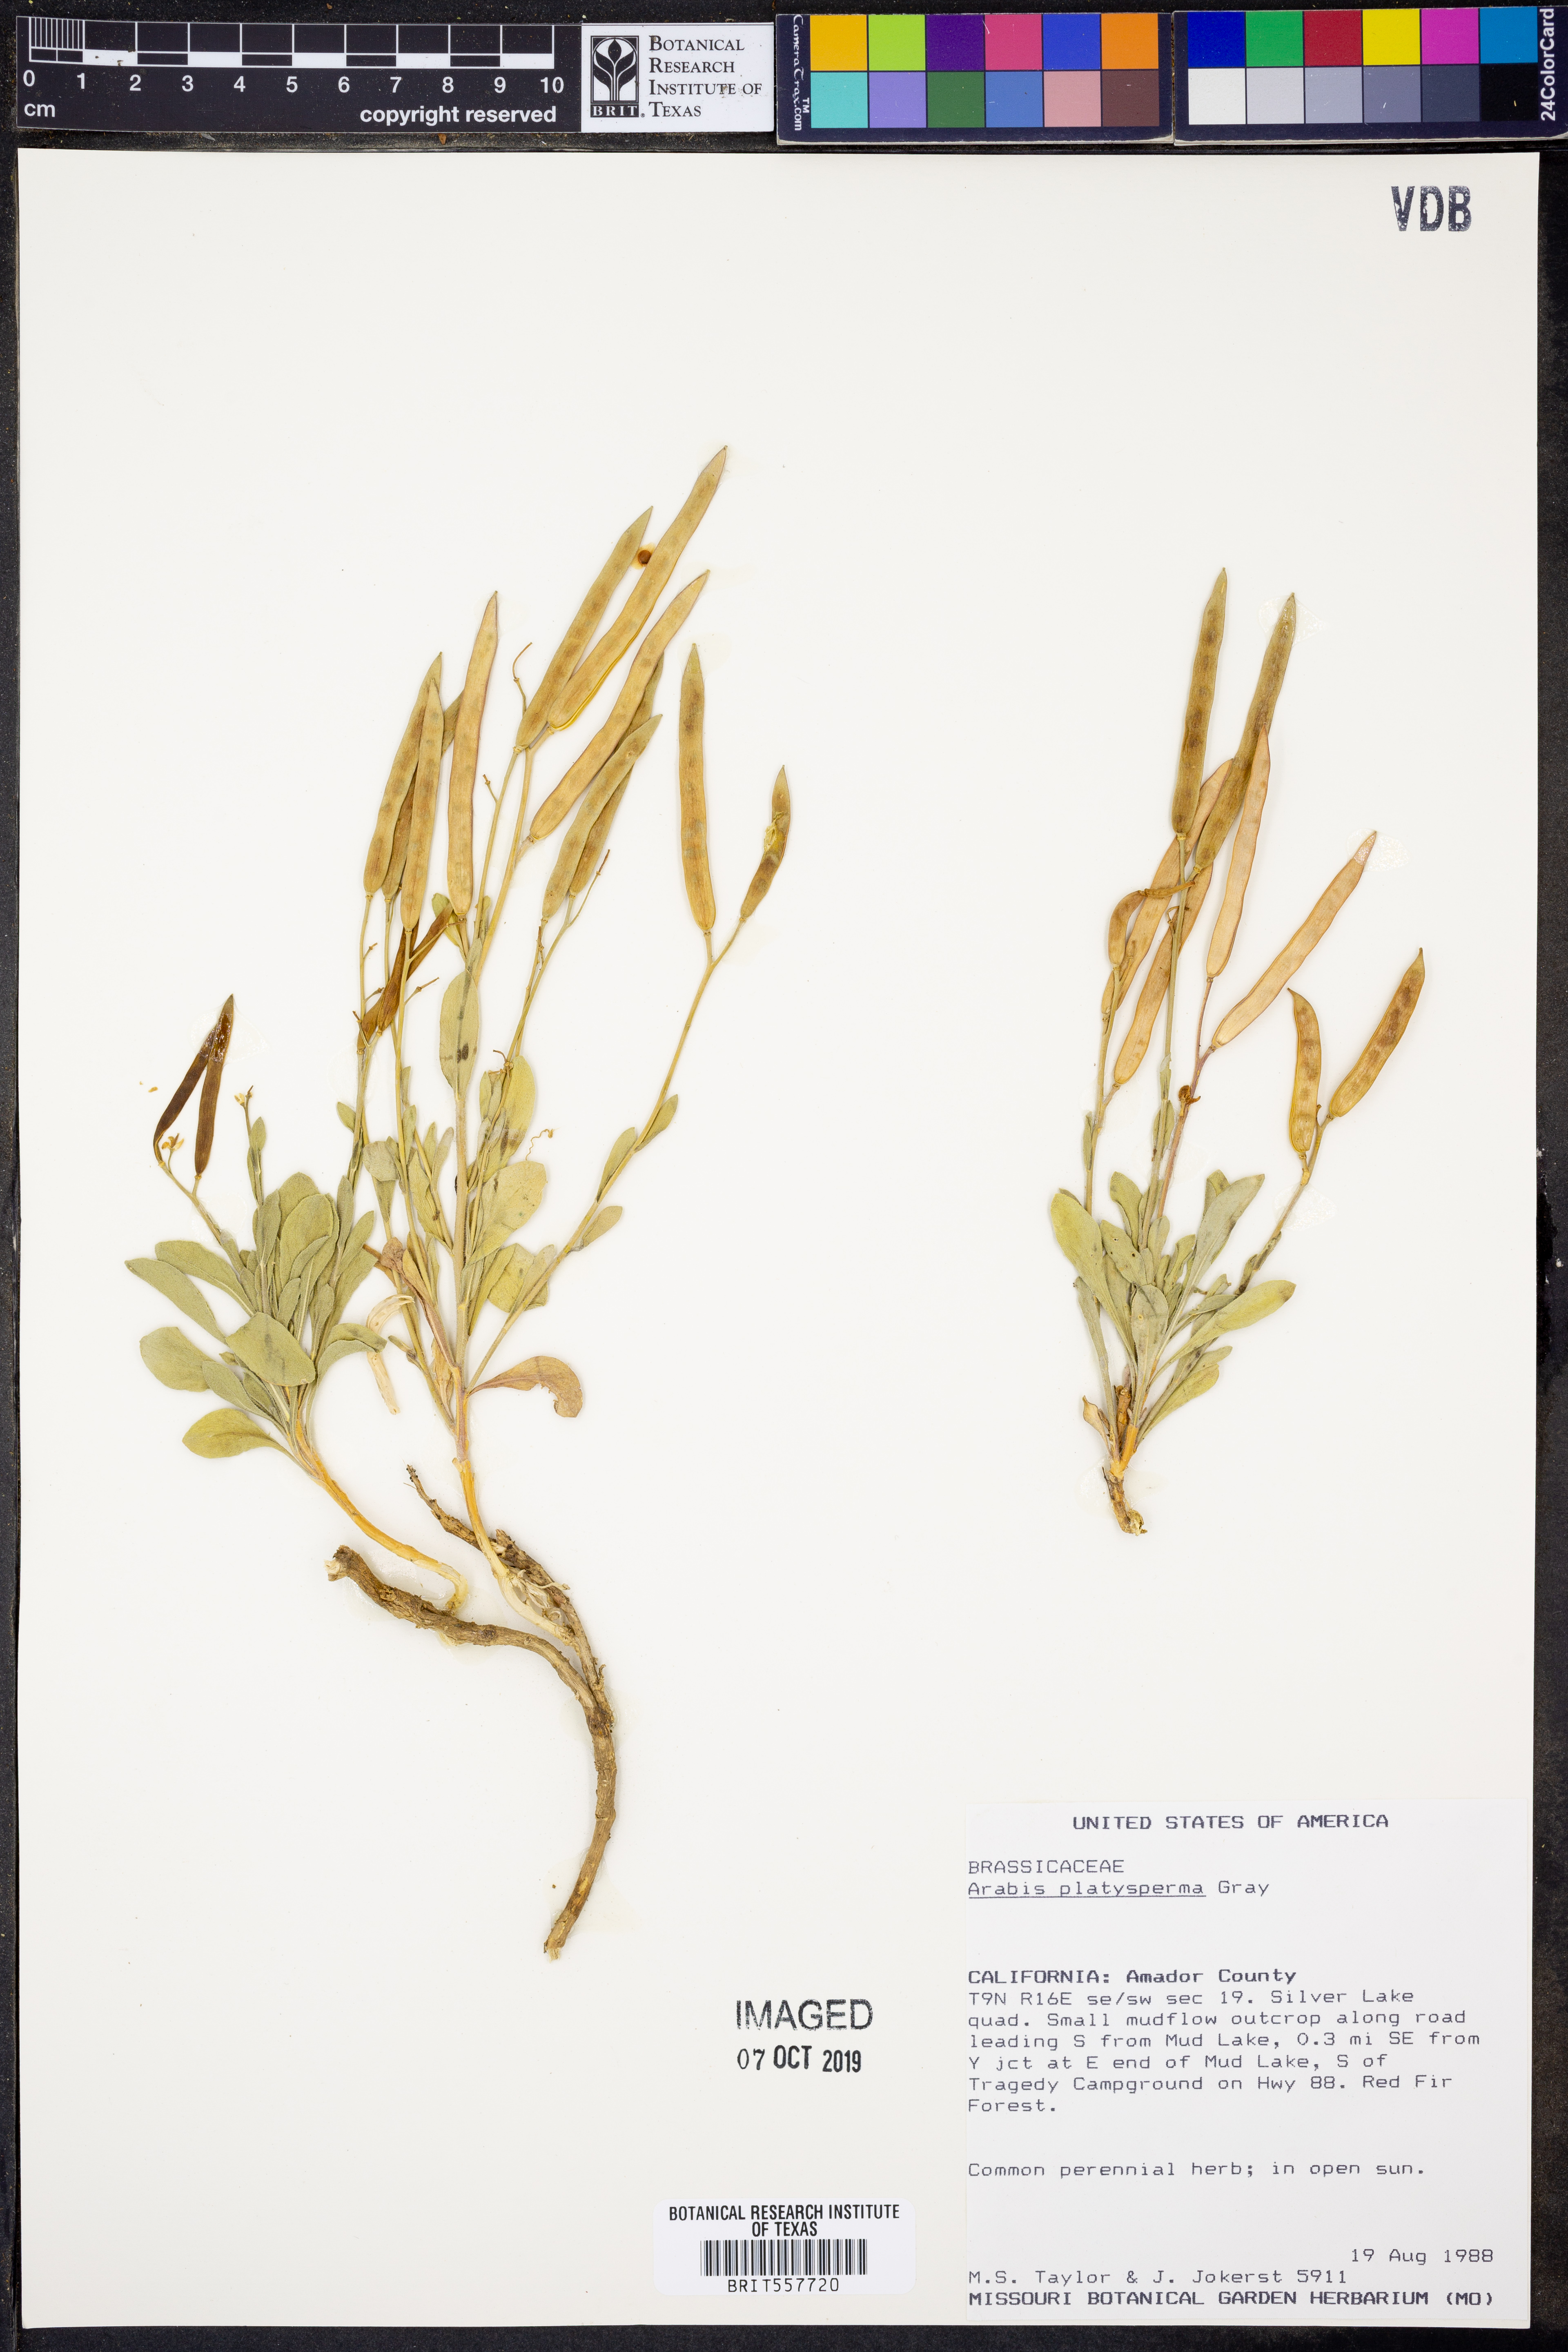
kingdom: Plantae
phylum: Tracheophyta
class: Magnoliopsida
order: Brassicales
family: Brassicaceae
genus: Boechera
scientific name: Boechera platysperma
